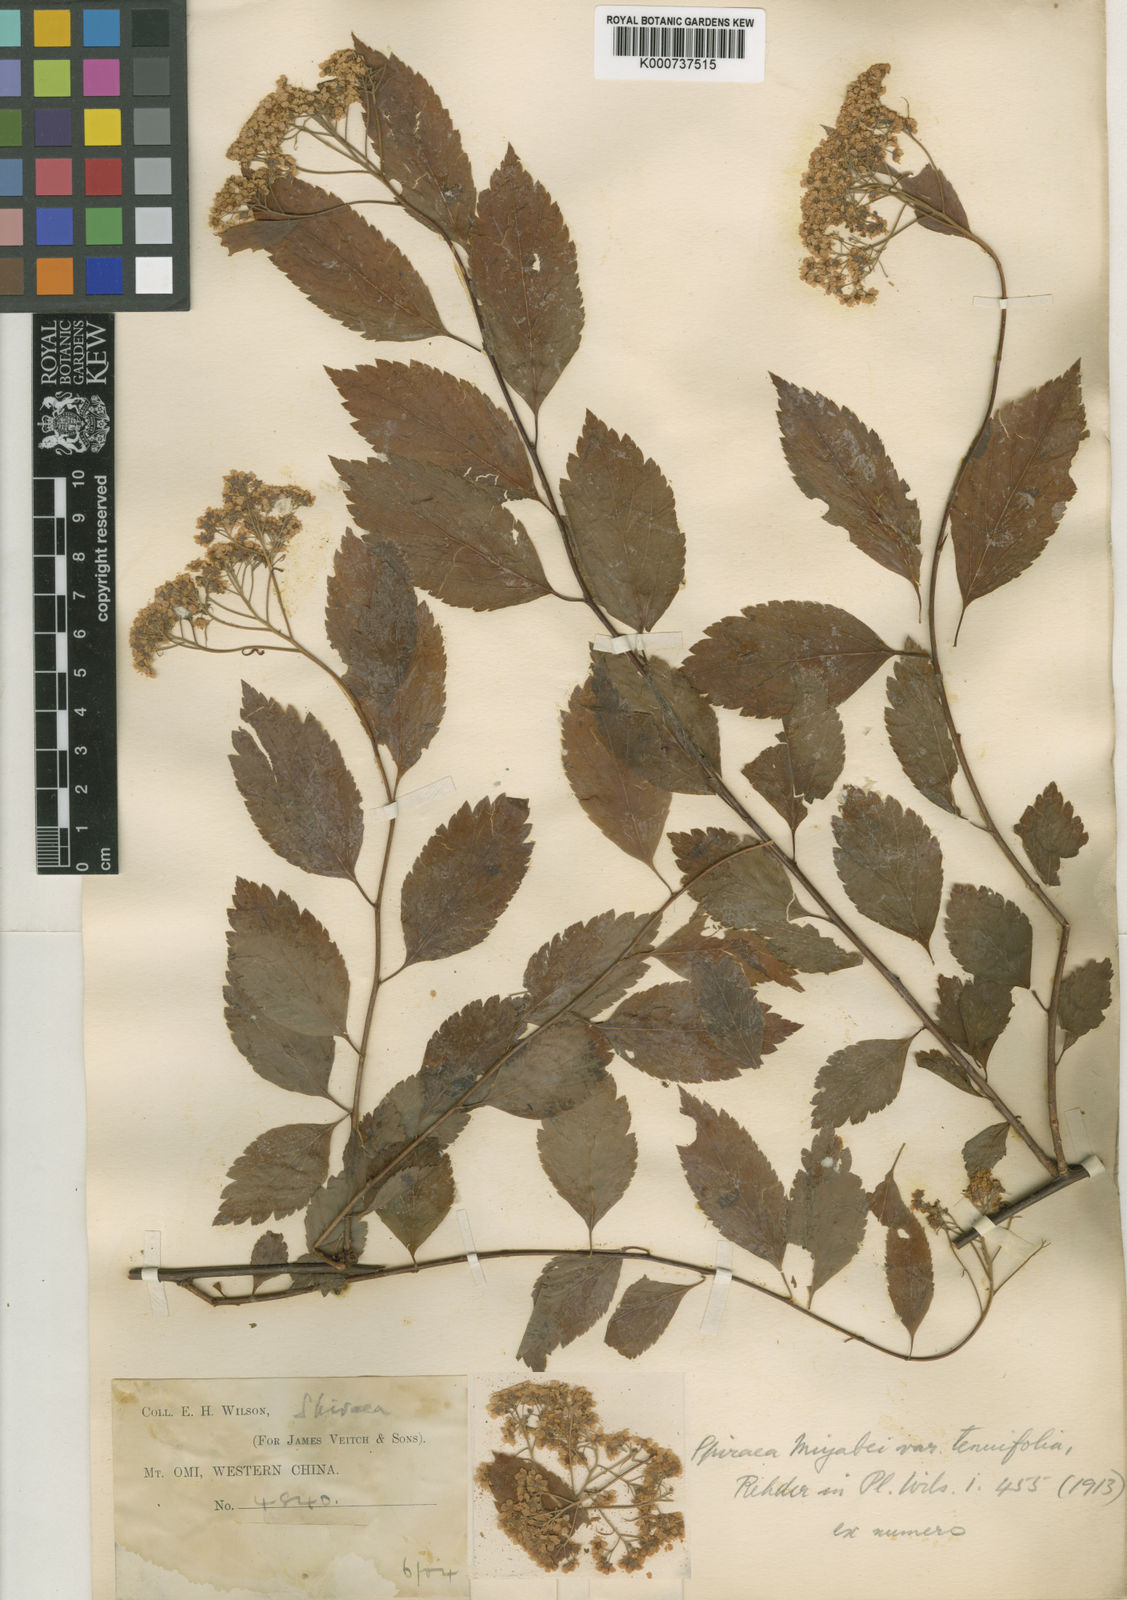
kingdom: Plantae
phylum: Tracheophyta
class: Magnoliopsida
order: Rosales
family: Rosaceae
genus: Spiraea
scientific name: Spiraea miyabei
